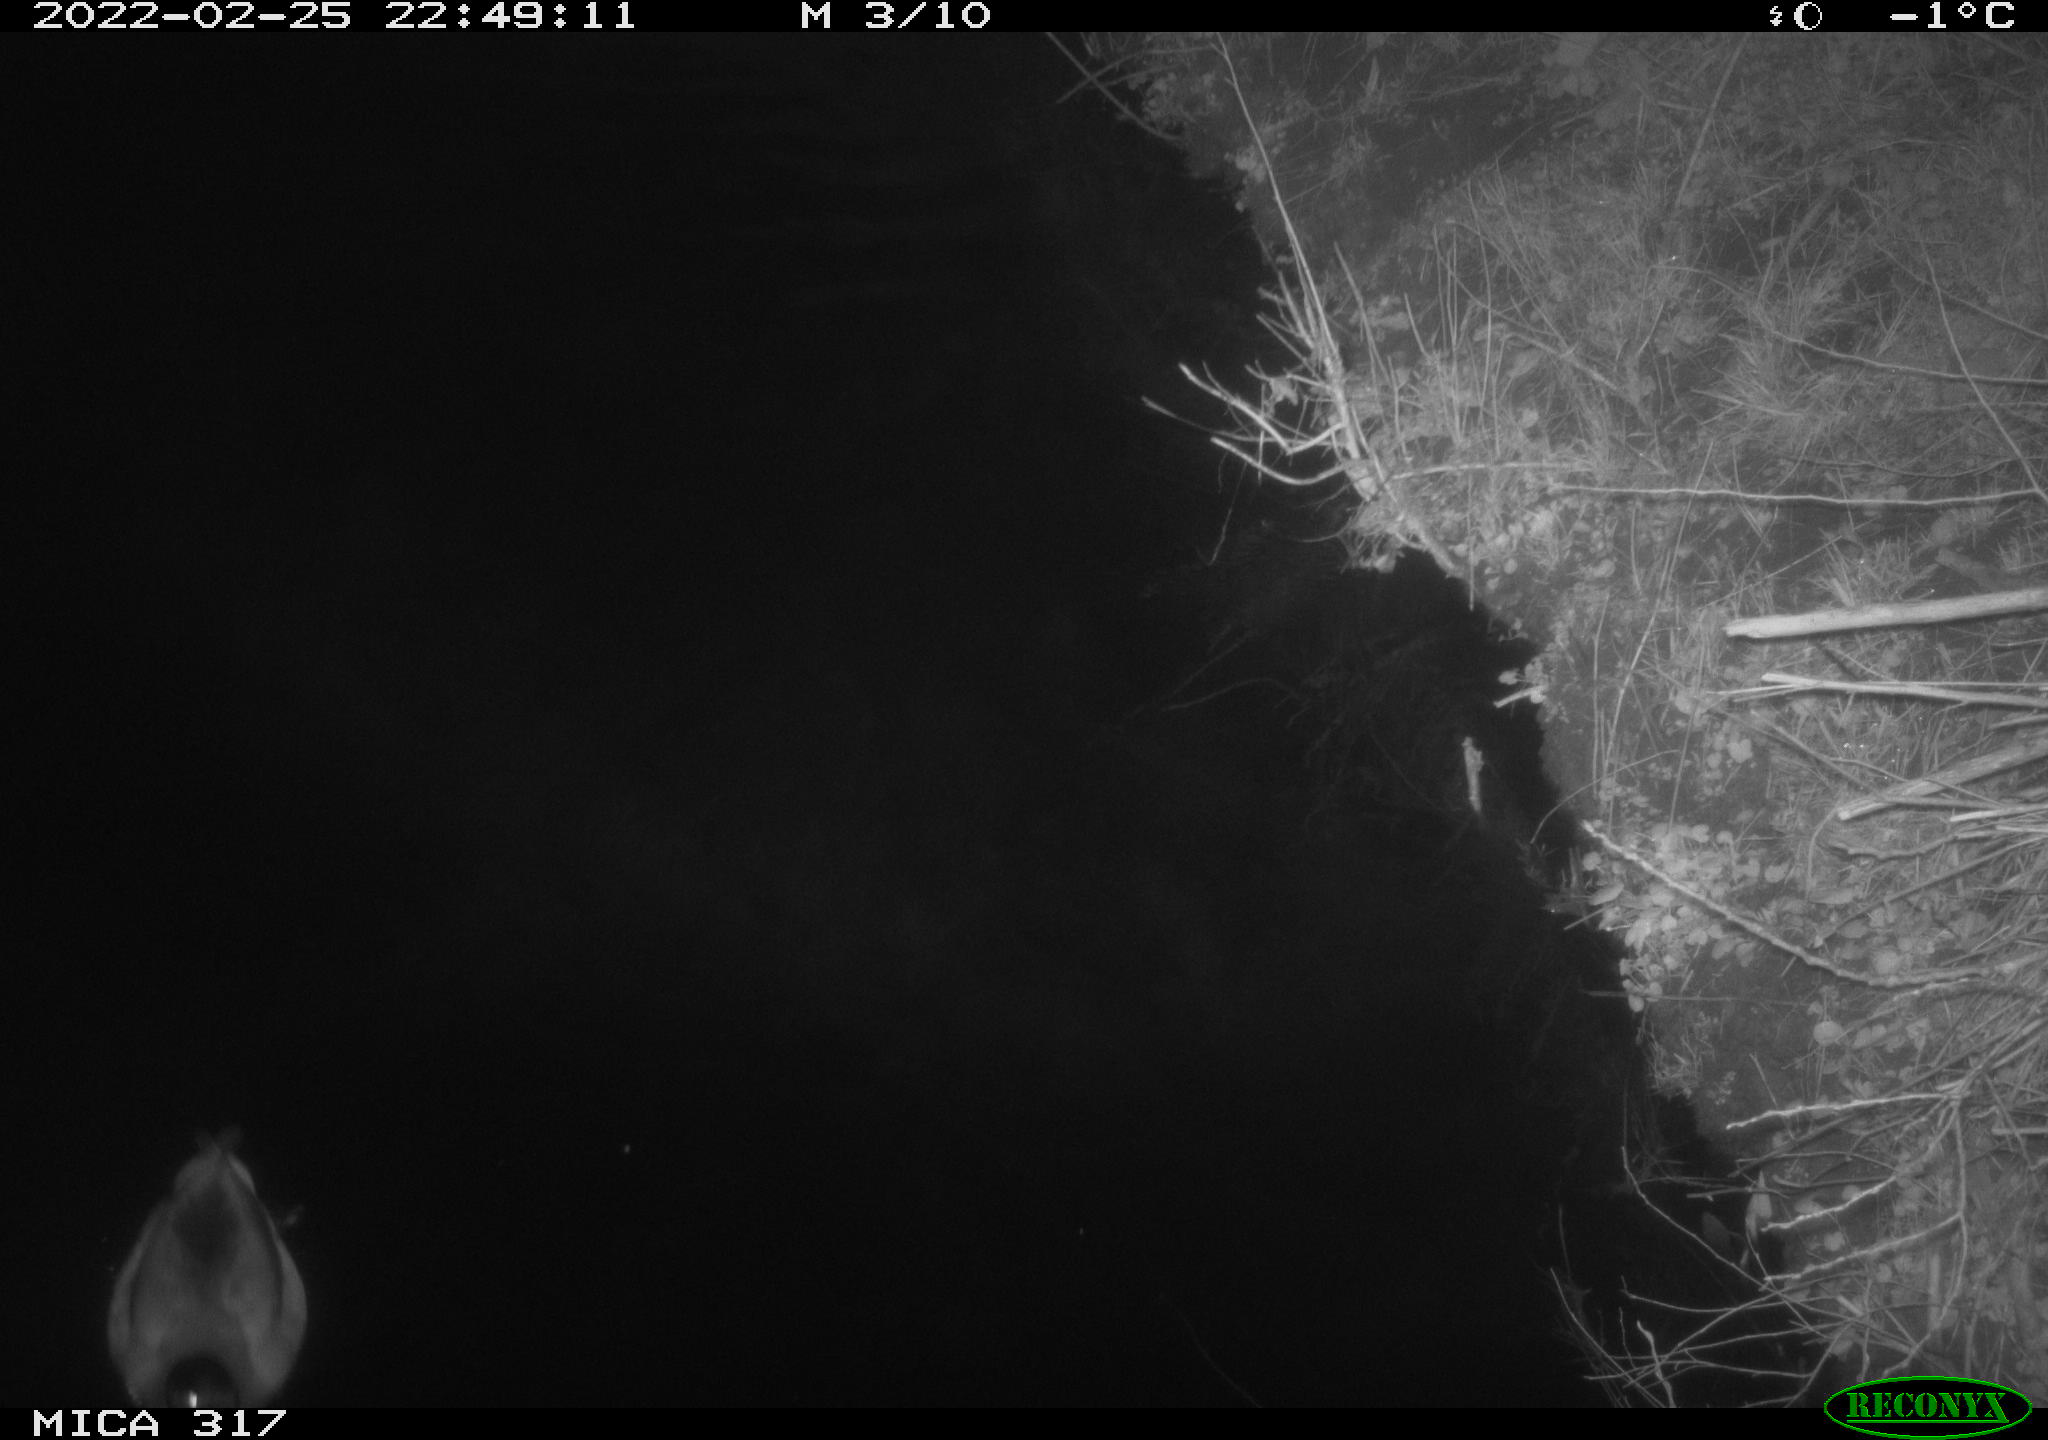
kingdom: Animalia
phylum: Chordata
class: Aves
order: Anseriformes
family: Anatidae
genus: Anas
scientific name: Anas platyrhynchos
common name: Mallard
